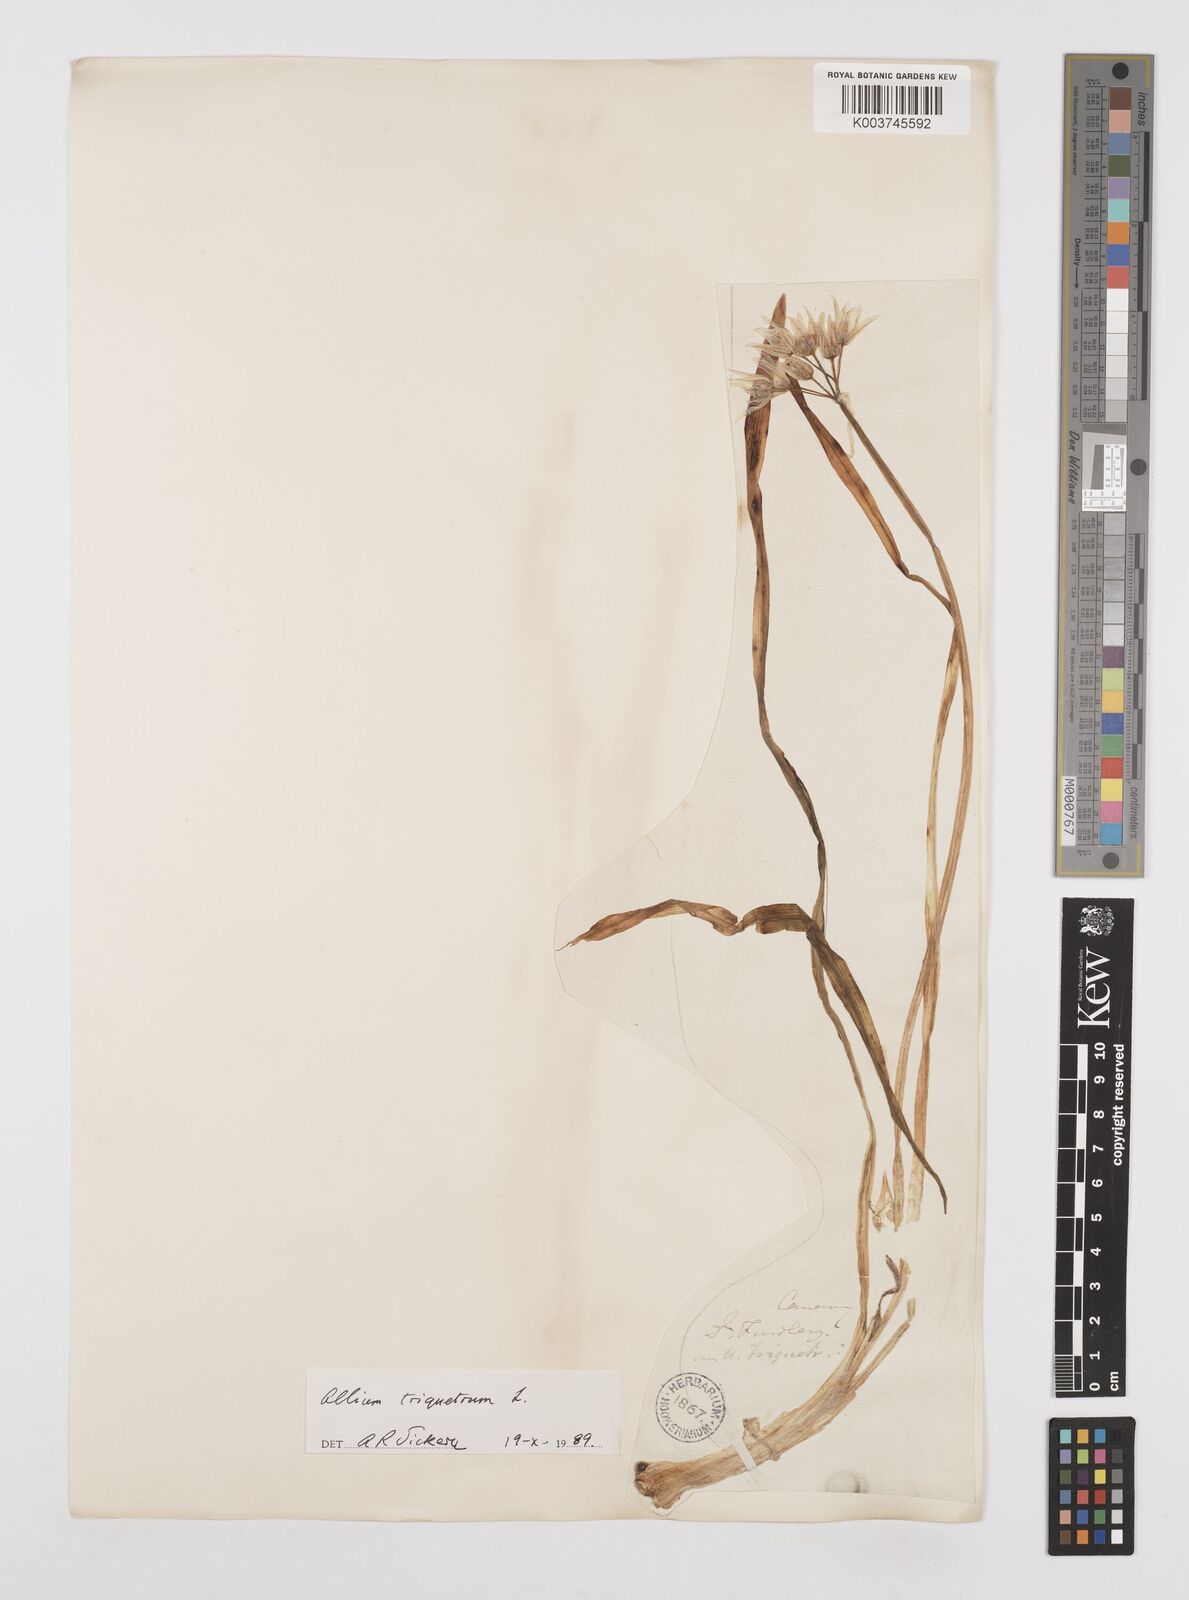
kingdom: Plantae
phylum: Tracheophyta
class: Liliopsida
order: Asparagales
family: Amaryllidaceae
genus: Allium
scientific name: Allium triquetrum
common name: Three-cornered garlic
